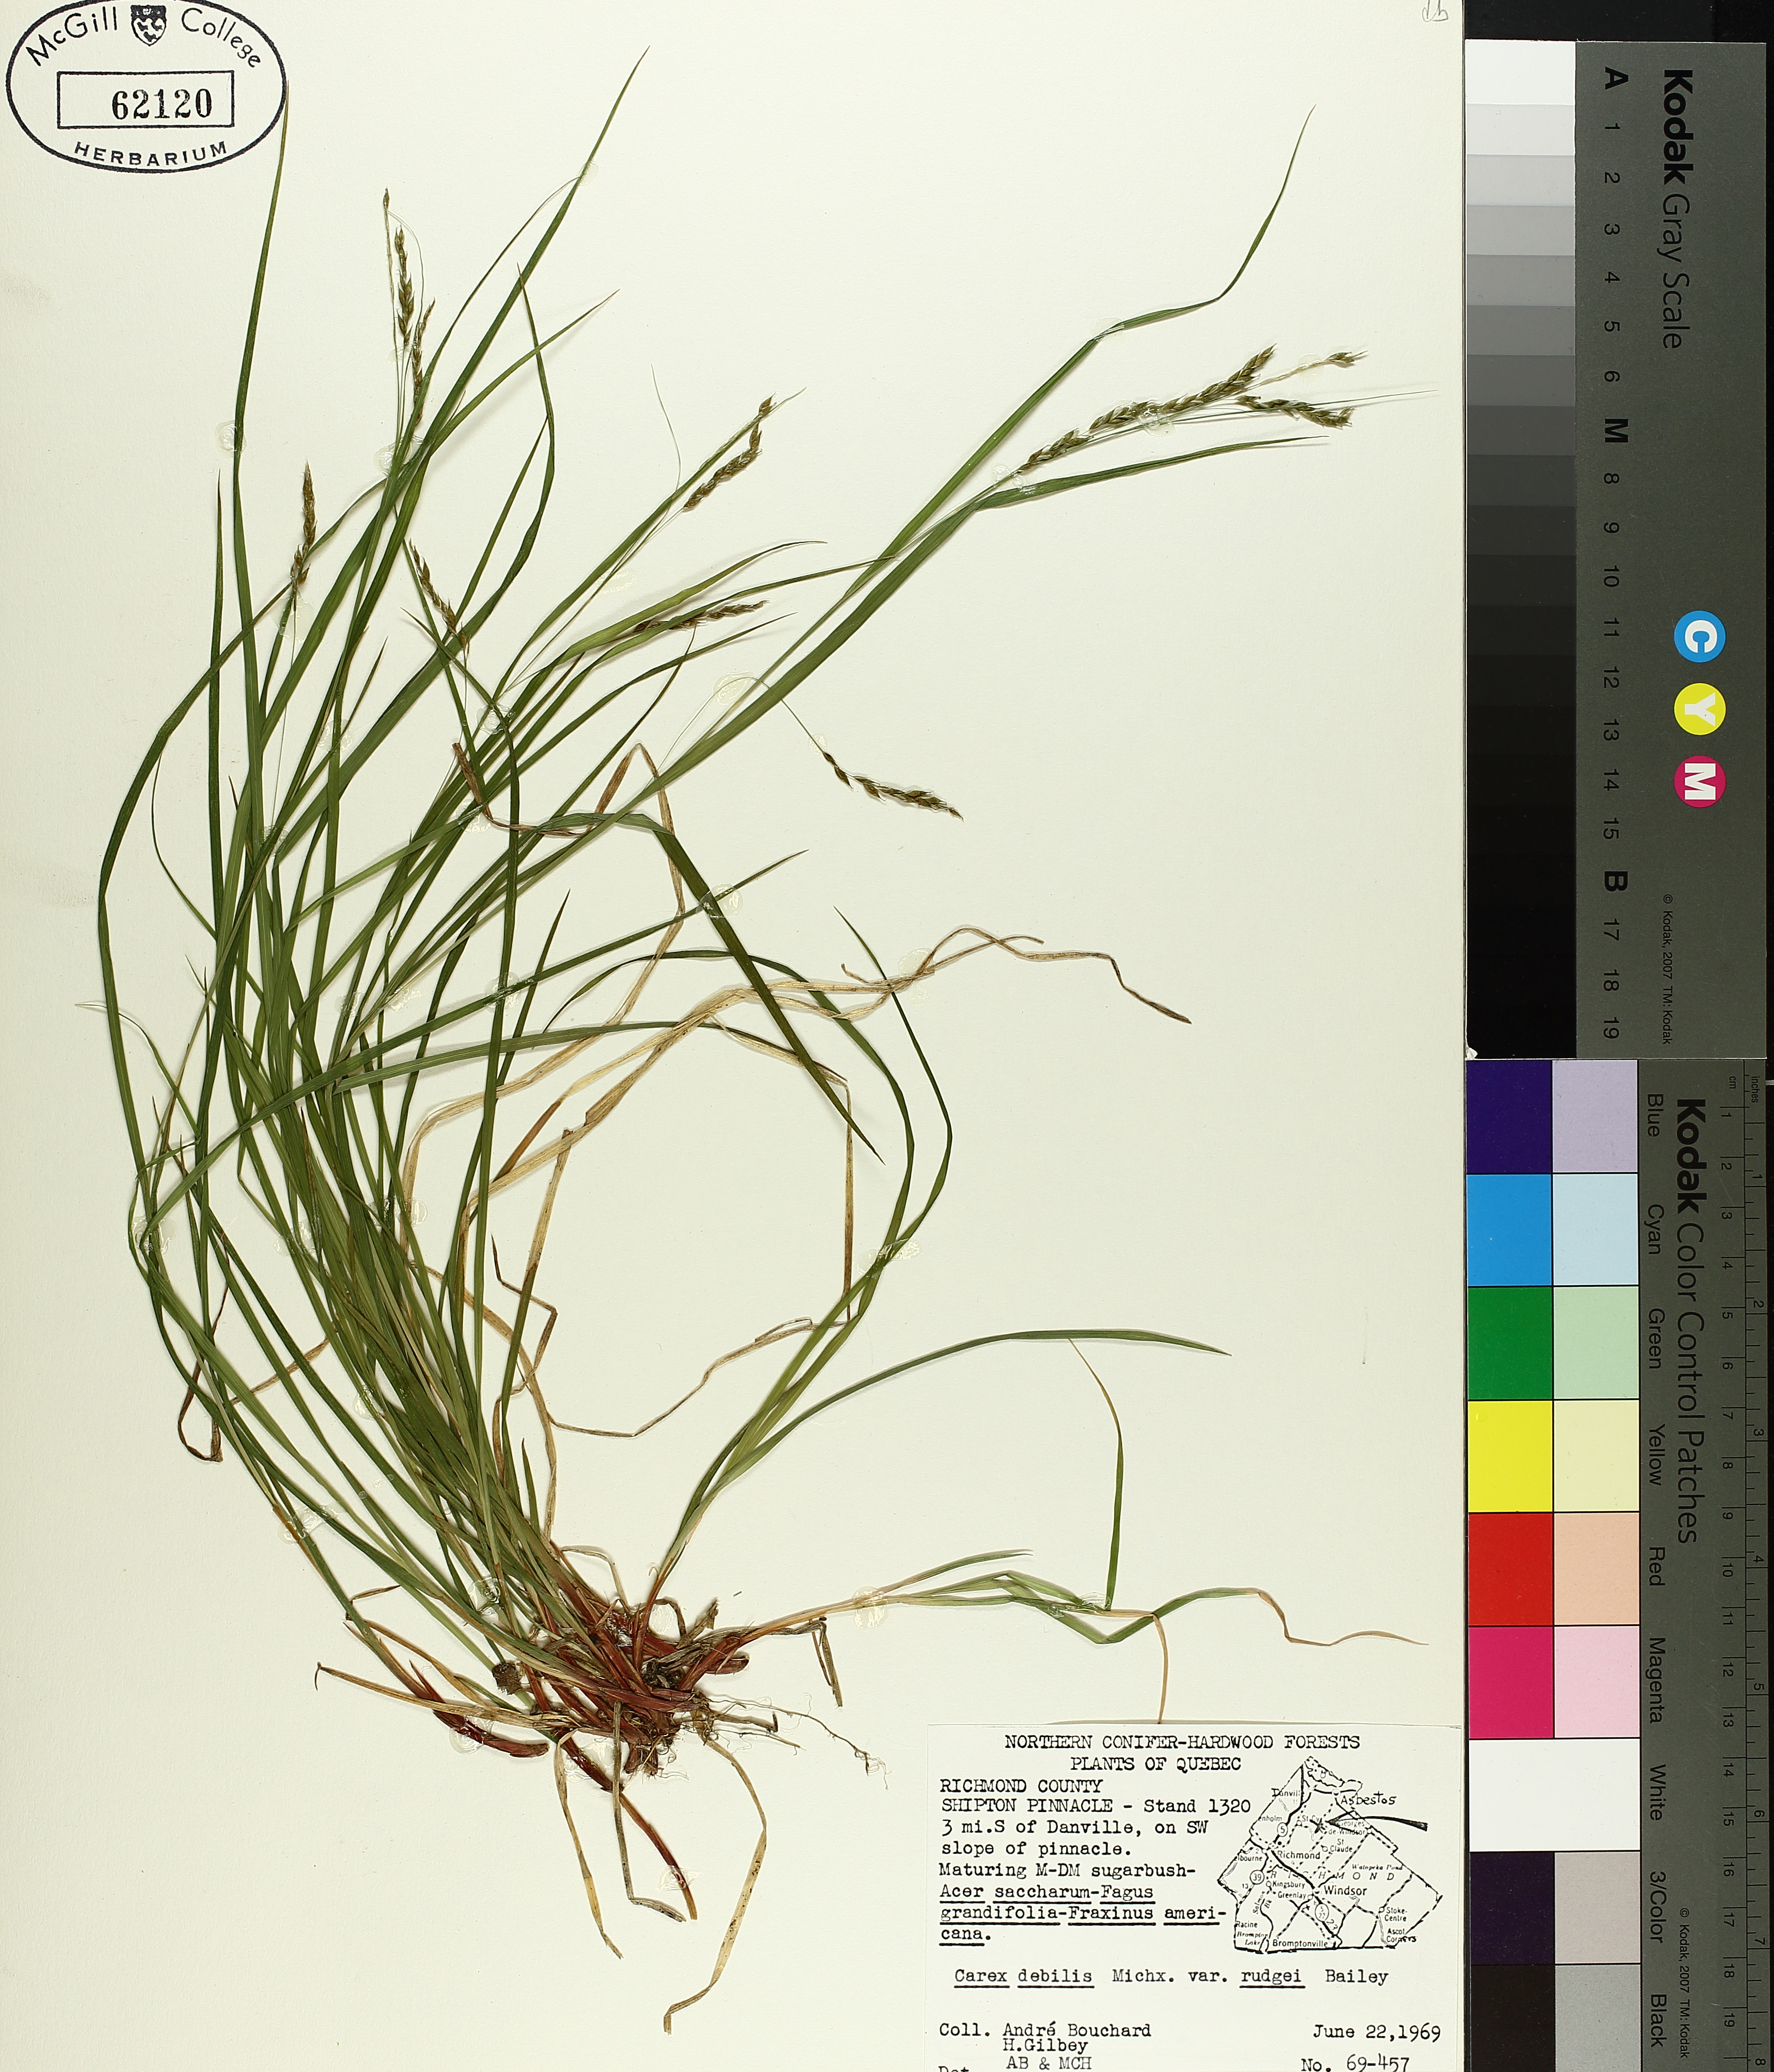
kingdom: Plantae
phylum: Tracheophyta
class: Liliopsida
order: Poales
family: Cyperaceae
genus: Carex
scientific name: Carex debilis
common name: White-edge sedge
